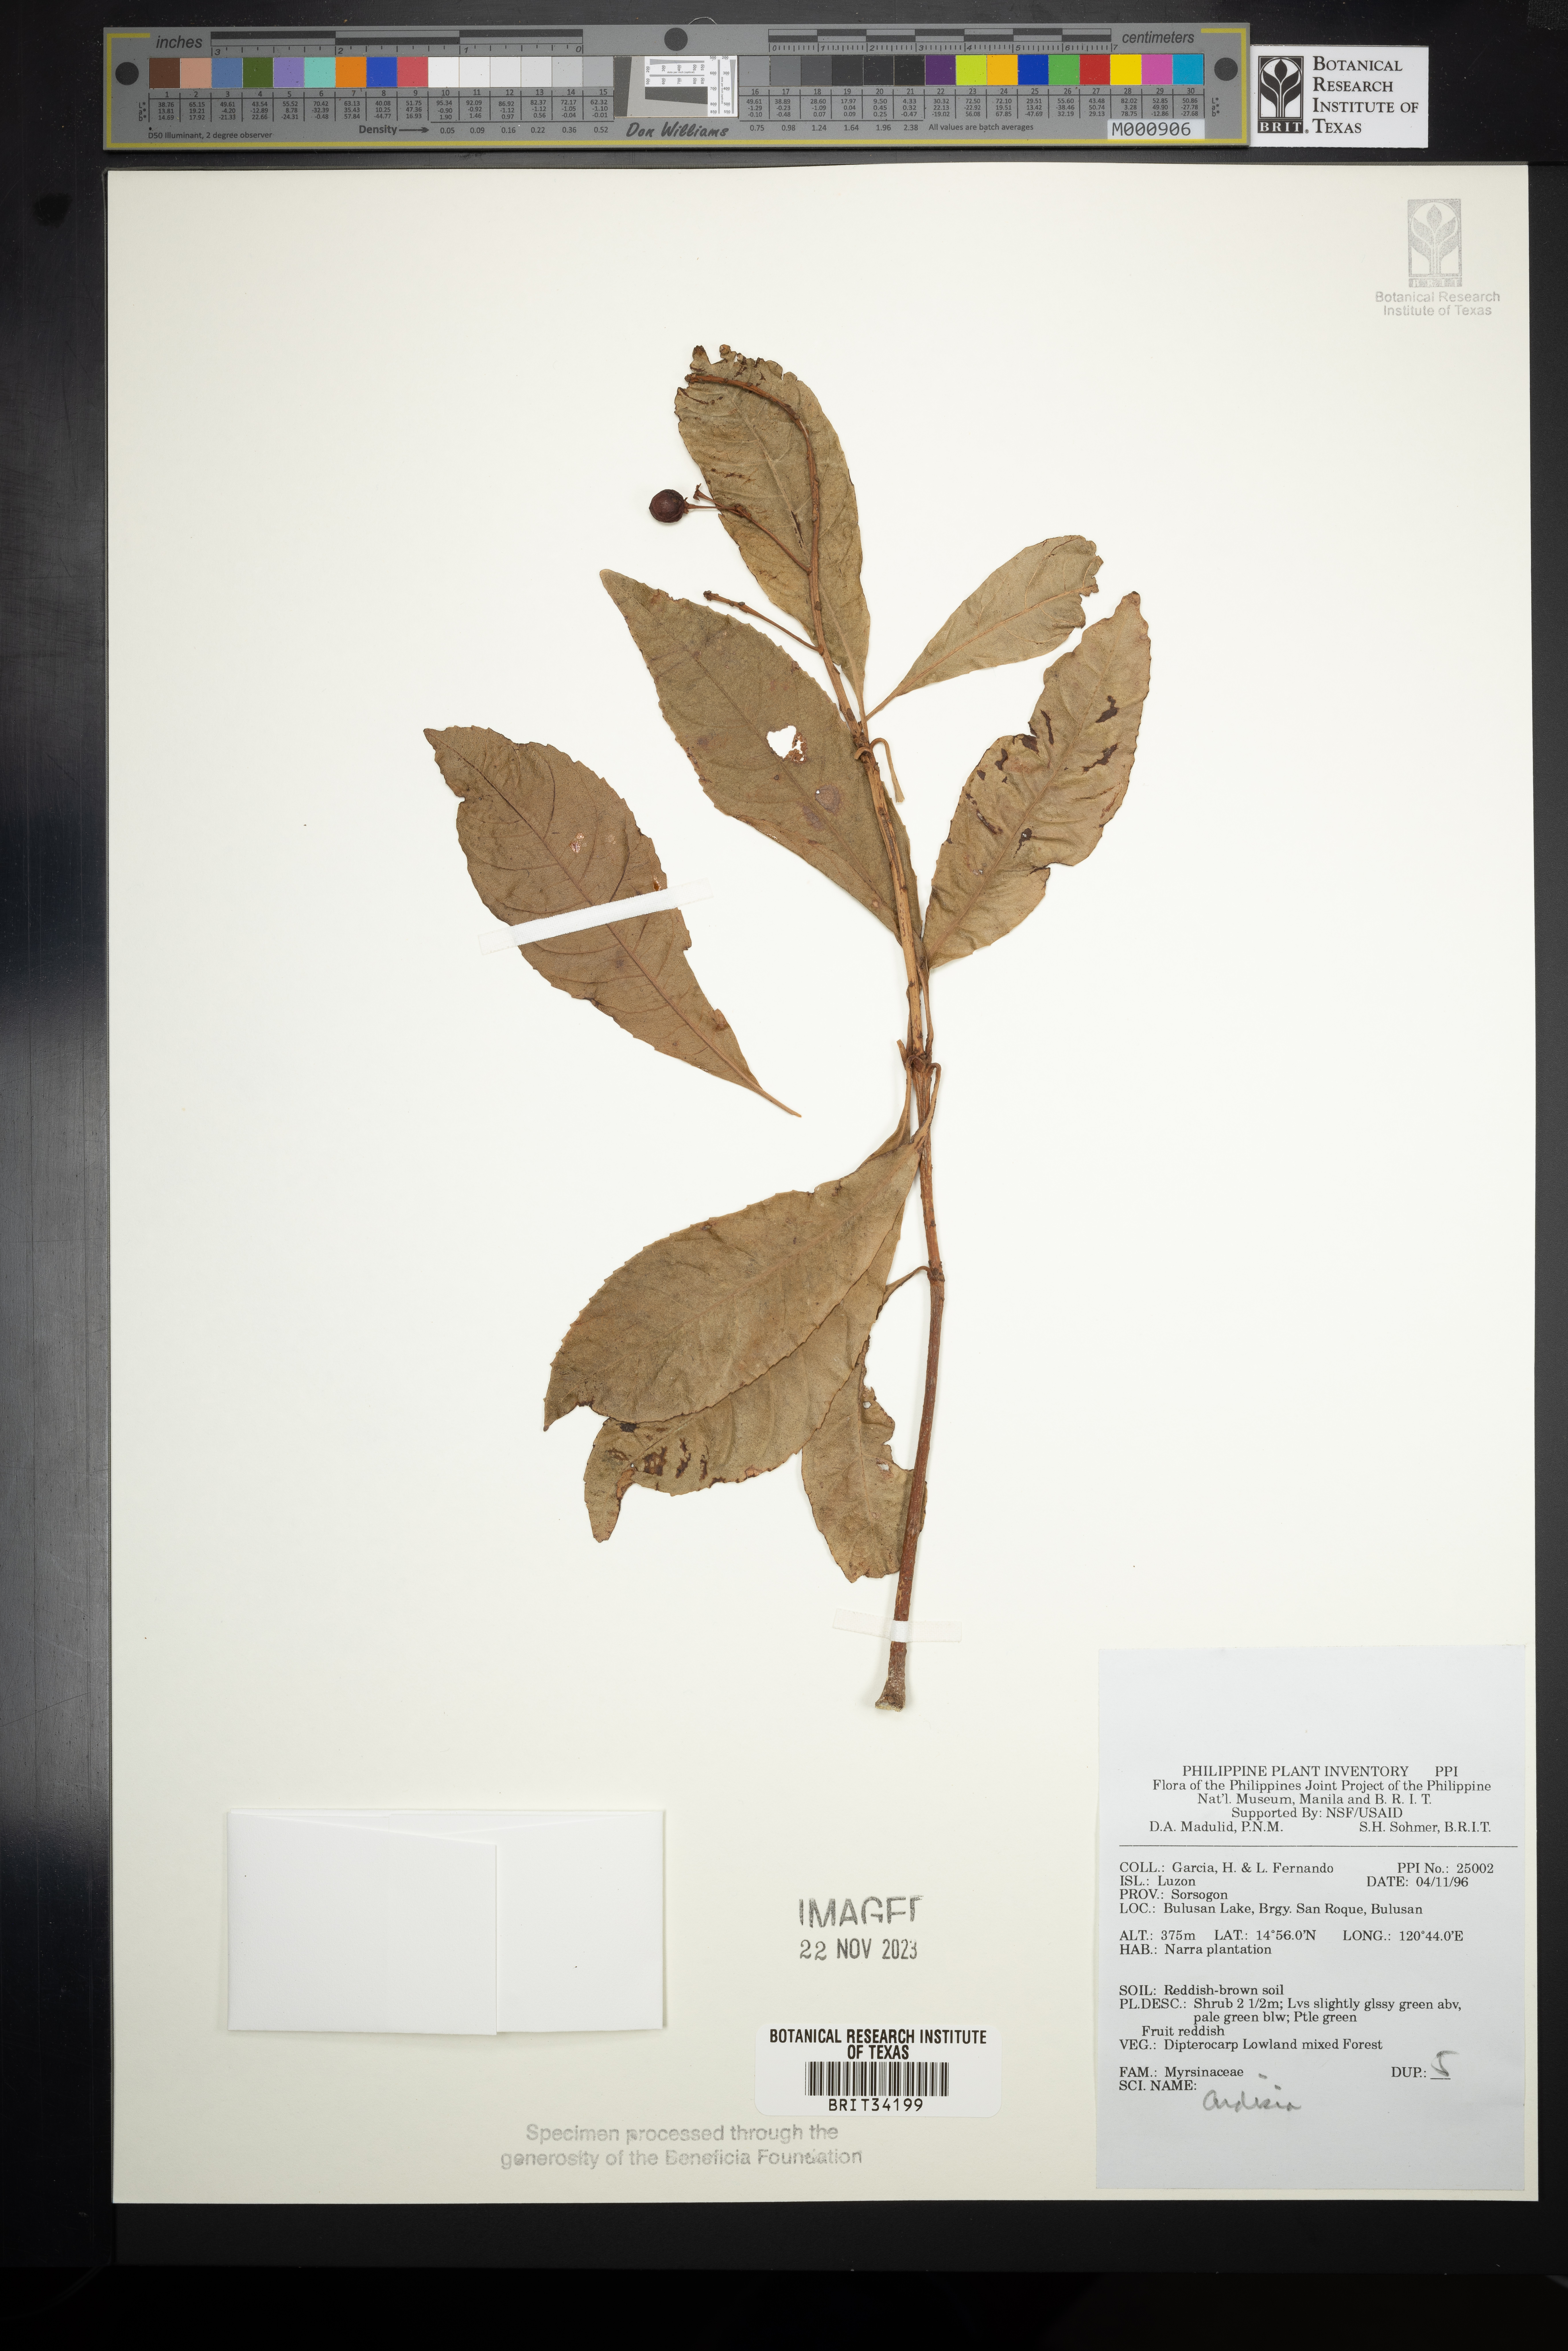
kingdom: Plantae
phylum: Tracheophyta
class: Magnoliopsida
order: Ericales
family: Primulaceae
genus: Ardisia
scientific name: Ardisia
